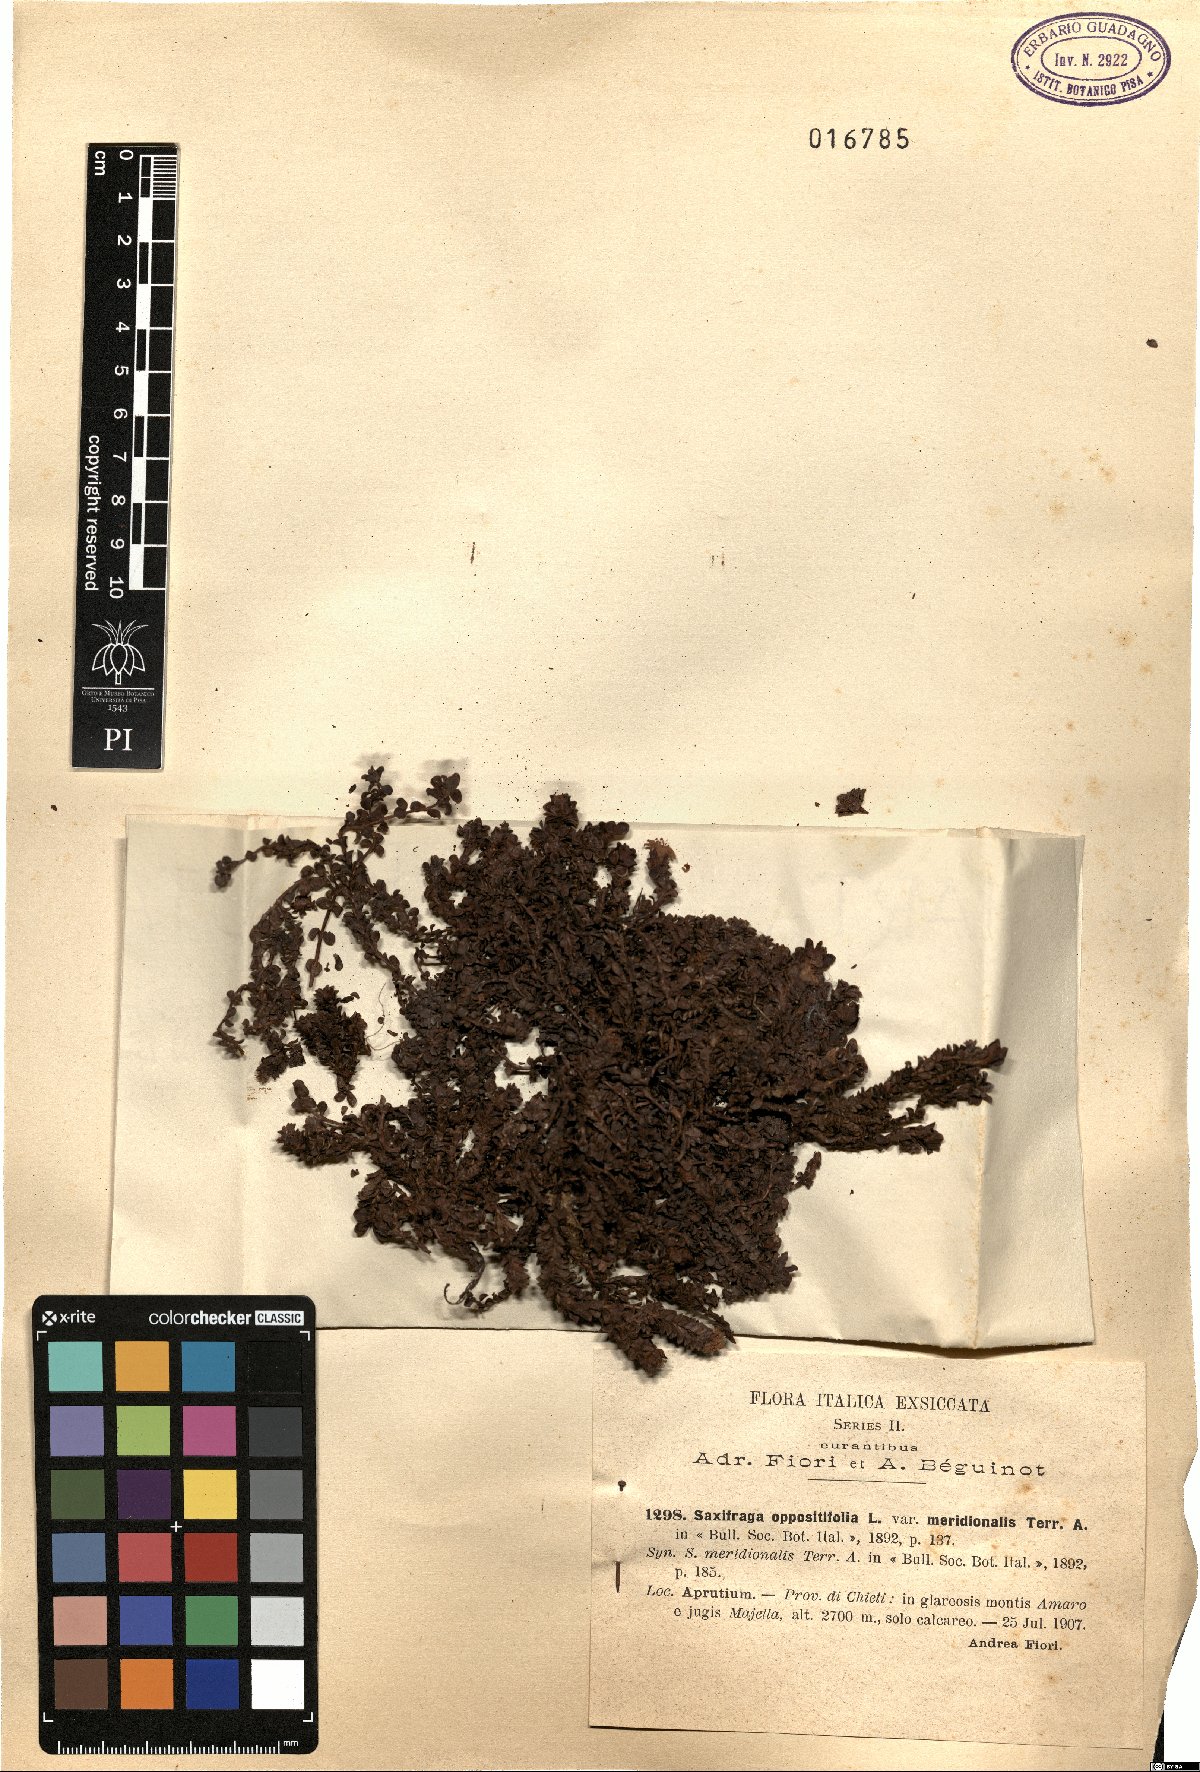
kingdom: Plantae
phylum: Tracheophyta
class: Magnoliopsida
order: Saxifragales
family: Saxifragaceae
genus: Saxifraga
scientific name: Saxifraga oppositifolia
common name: Purple saxifrage
